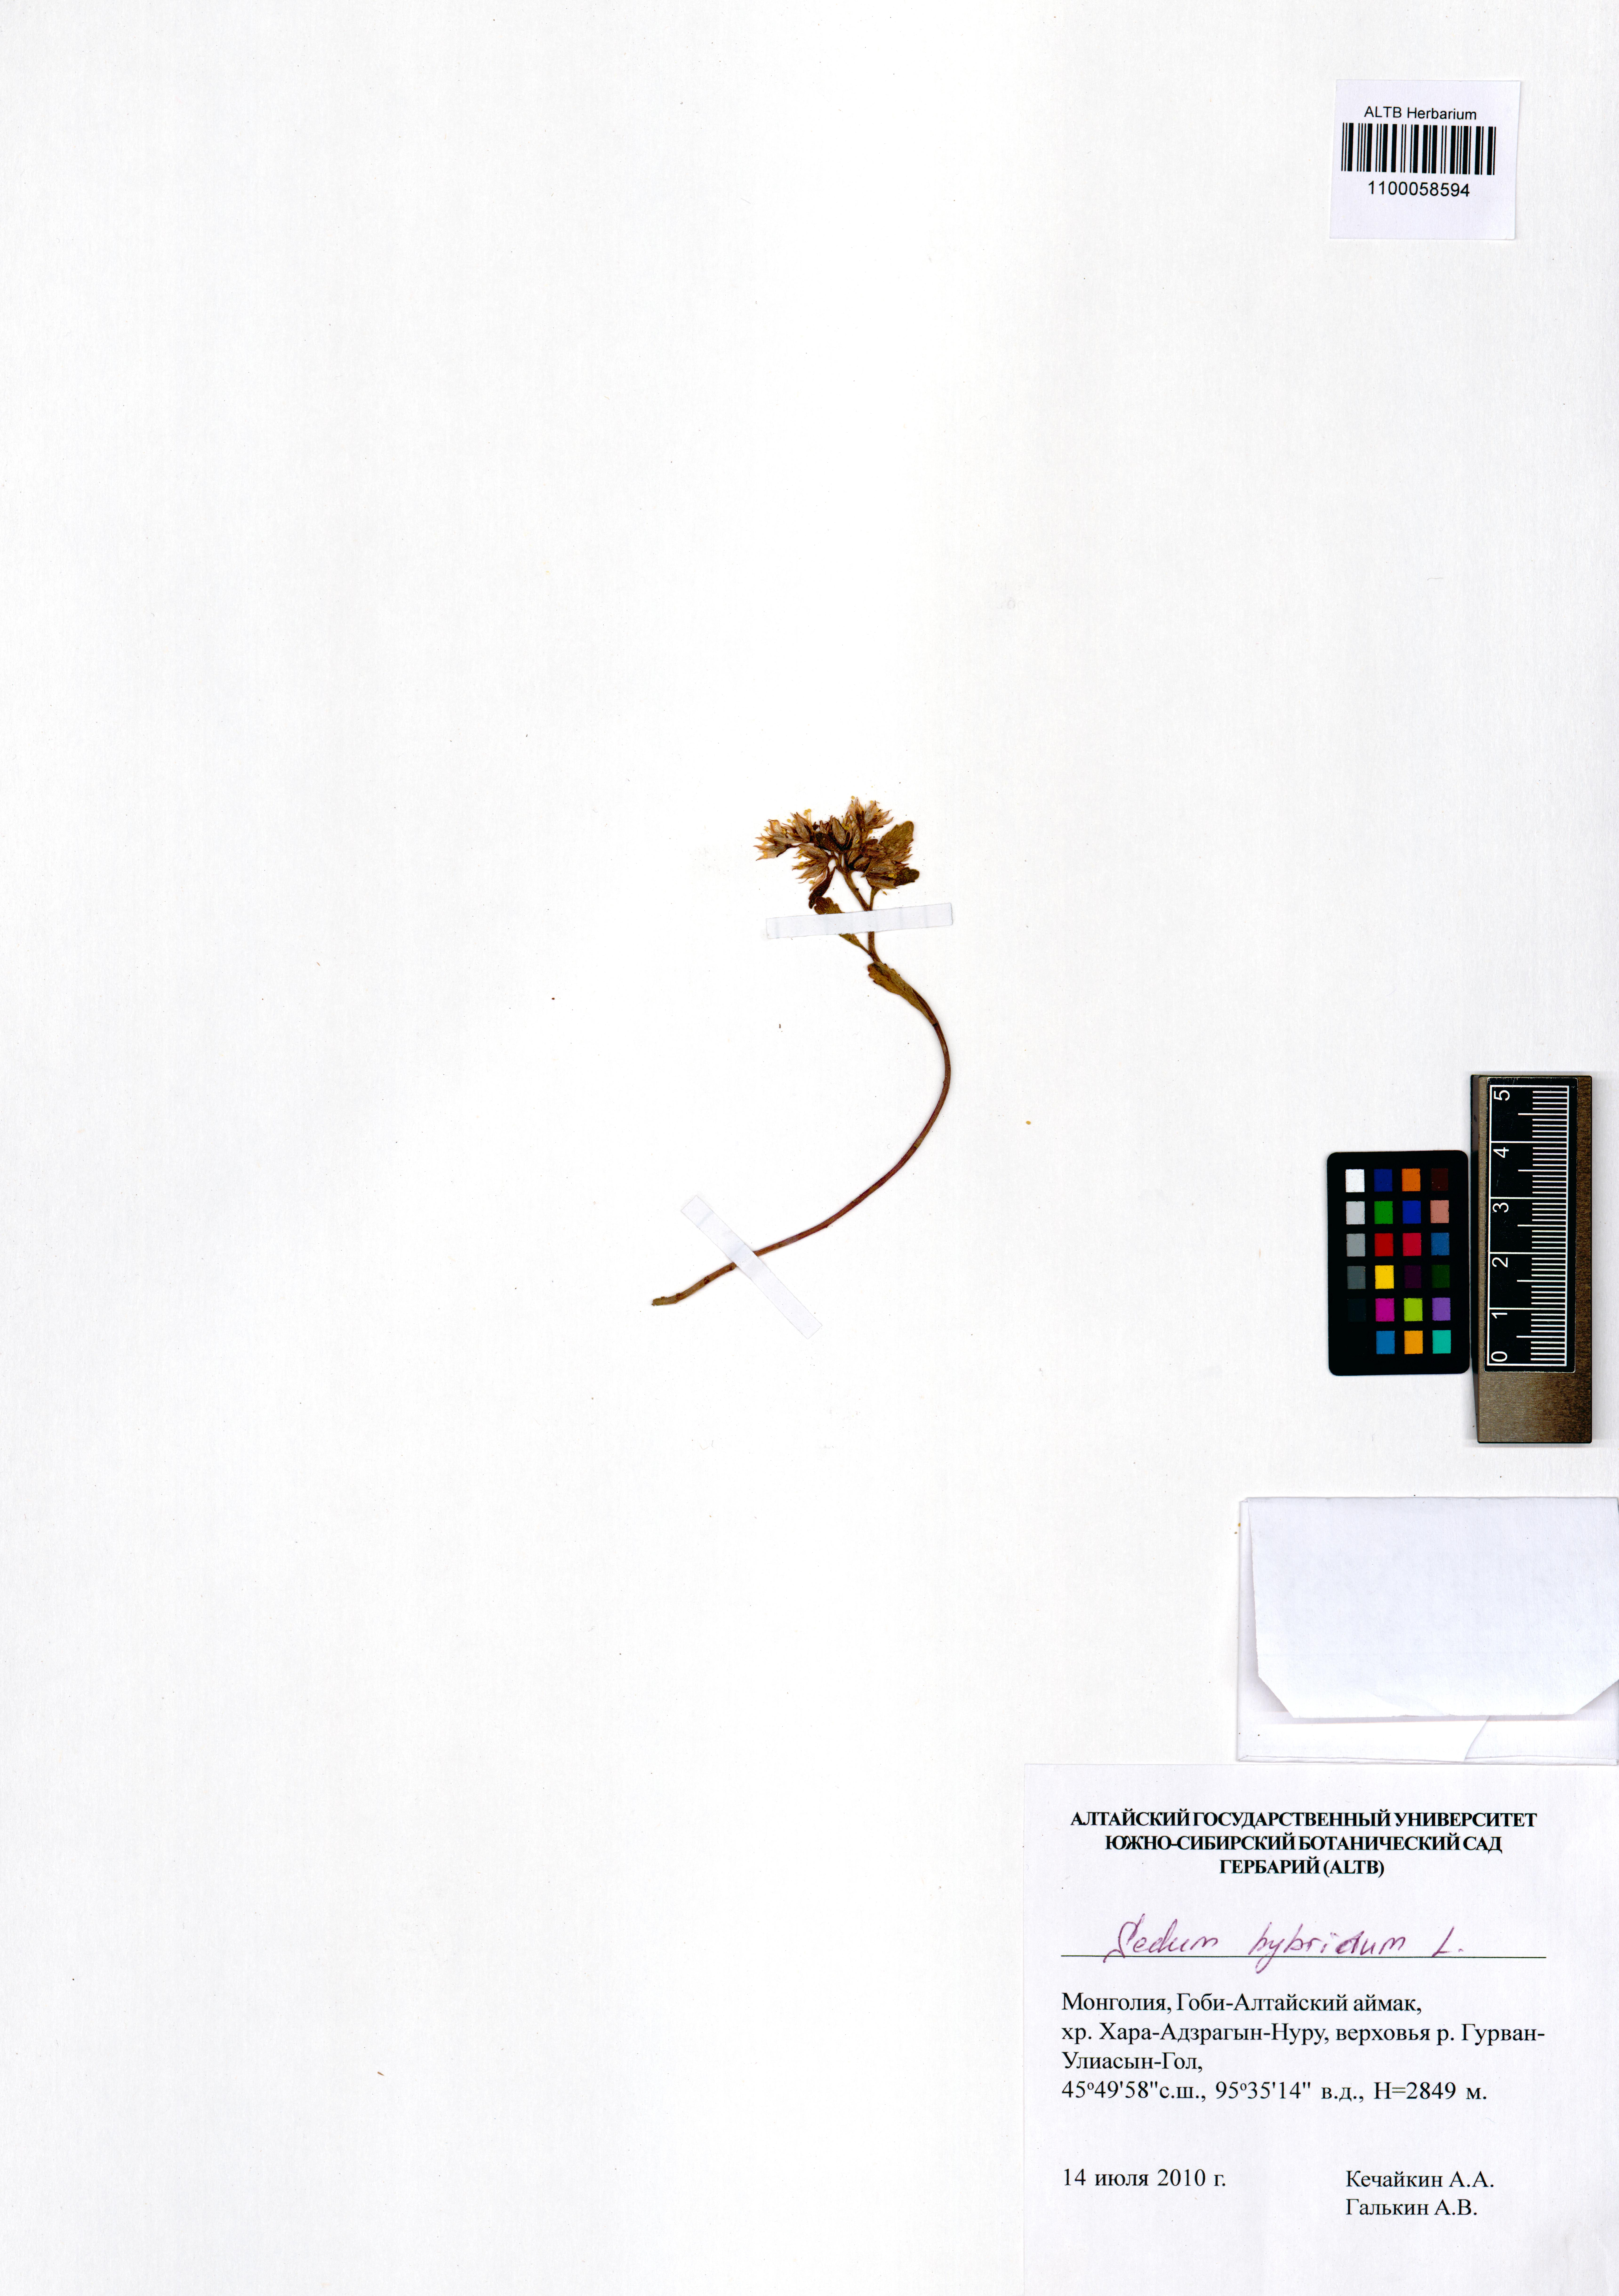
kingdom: Plantae
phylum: Tracheophyta
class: Magnoliopsida
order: Saxifragales
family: Crassulaceae
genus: Phedimus
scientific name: Phedimus hybridus
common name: Hybrid stonecrop
